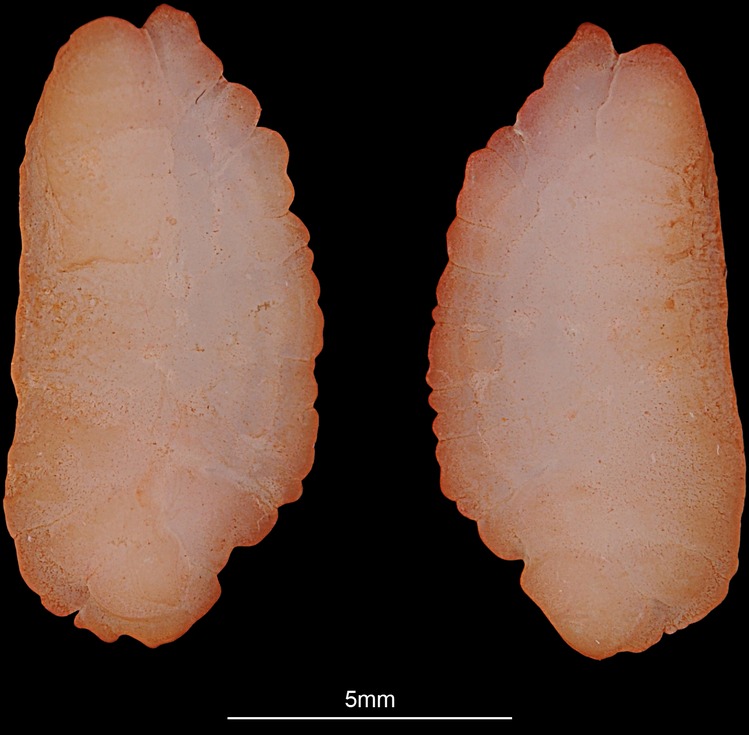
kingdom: Animalia
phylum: Chordata
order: Gadiformes
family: Lotidae
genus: Lota
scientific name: Lota lota
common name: Burbot
